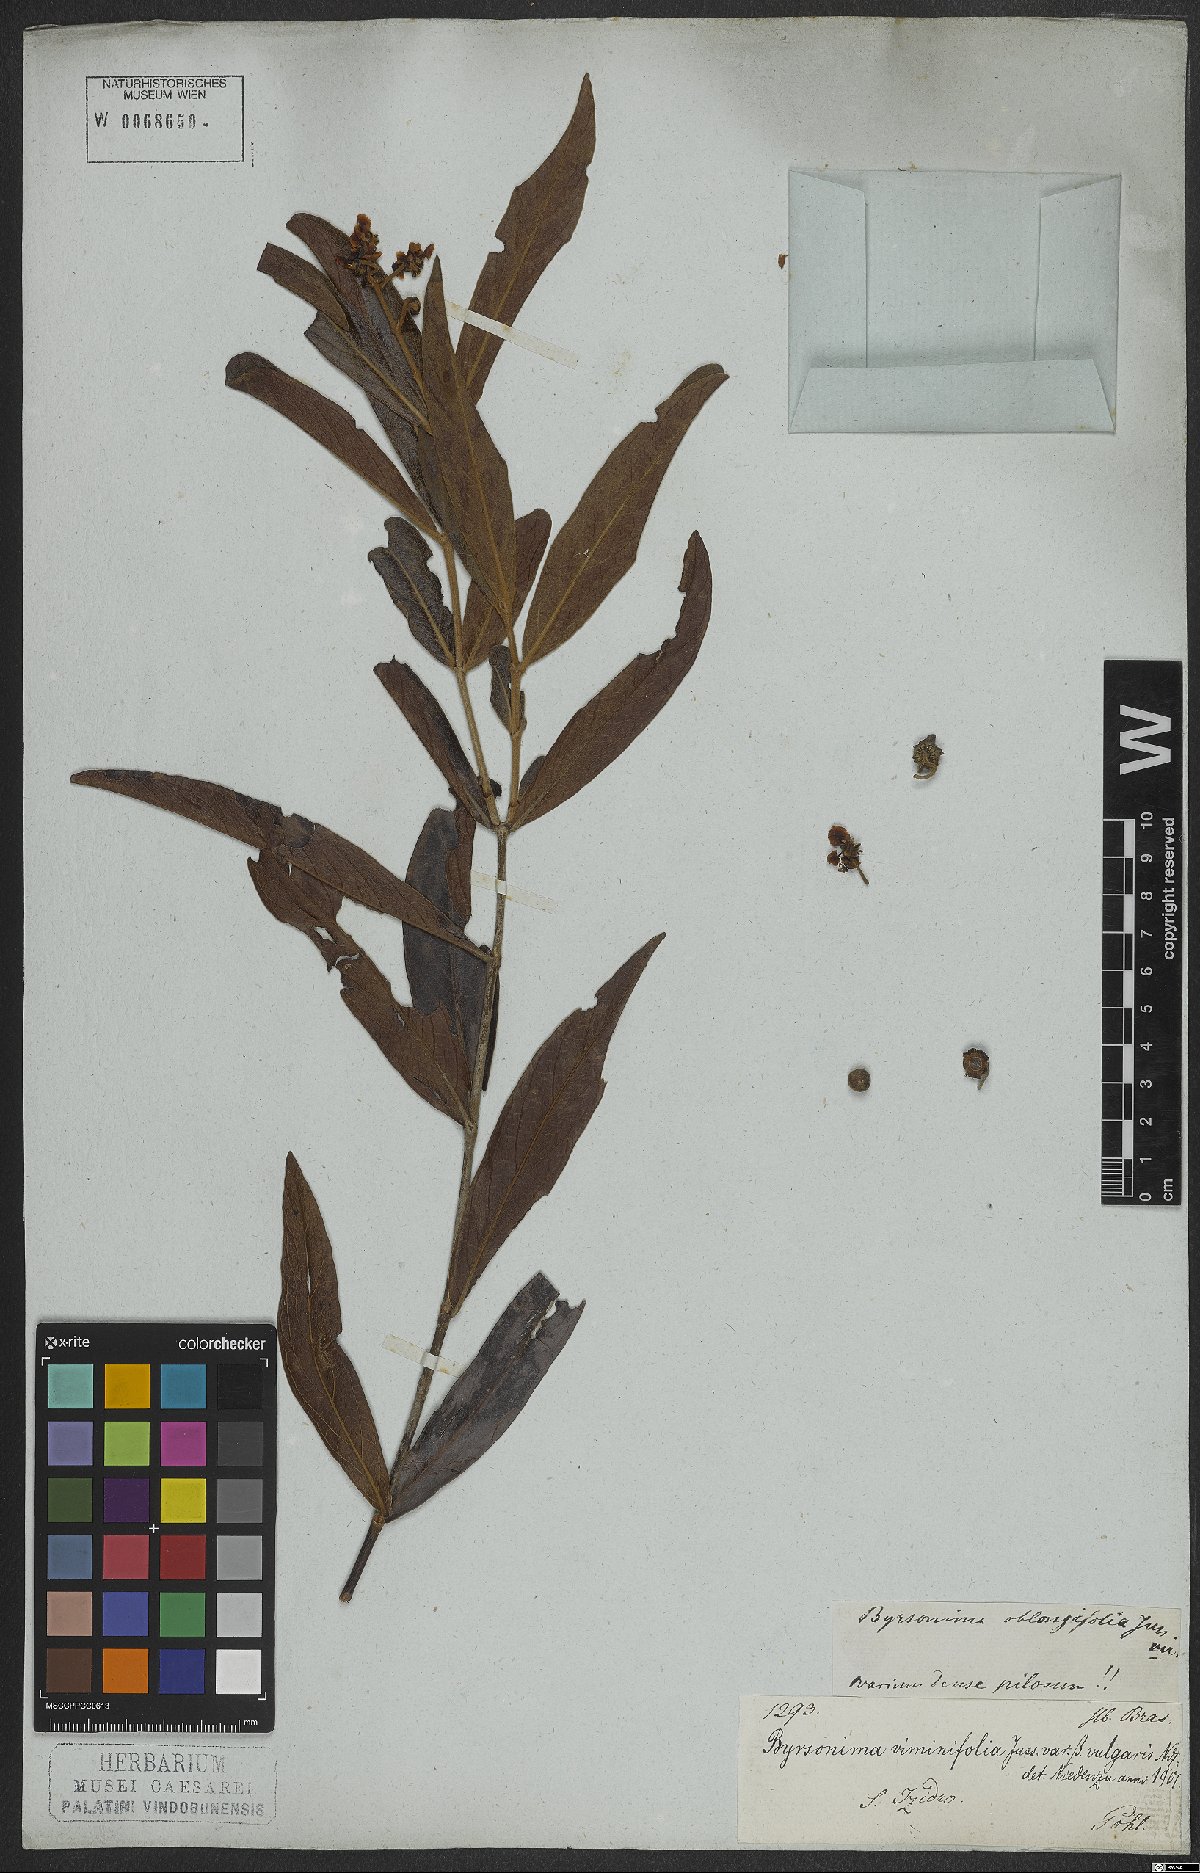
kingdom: Plantae
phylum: Tracheophyta
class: Magnoliopsida
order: Malpighiales
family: Malpighiaceae
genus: Byrsonima
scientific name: Byrsonima viminifolia
